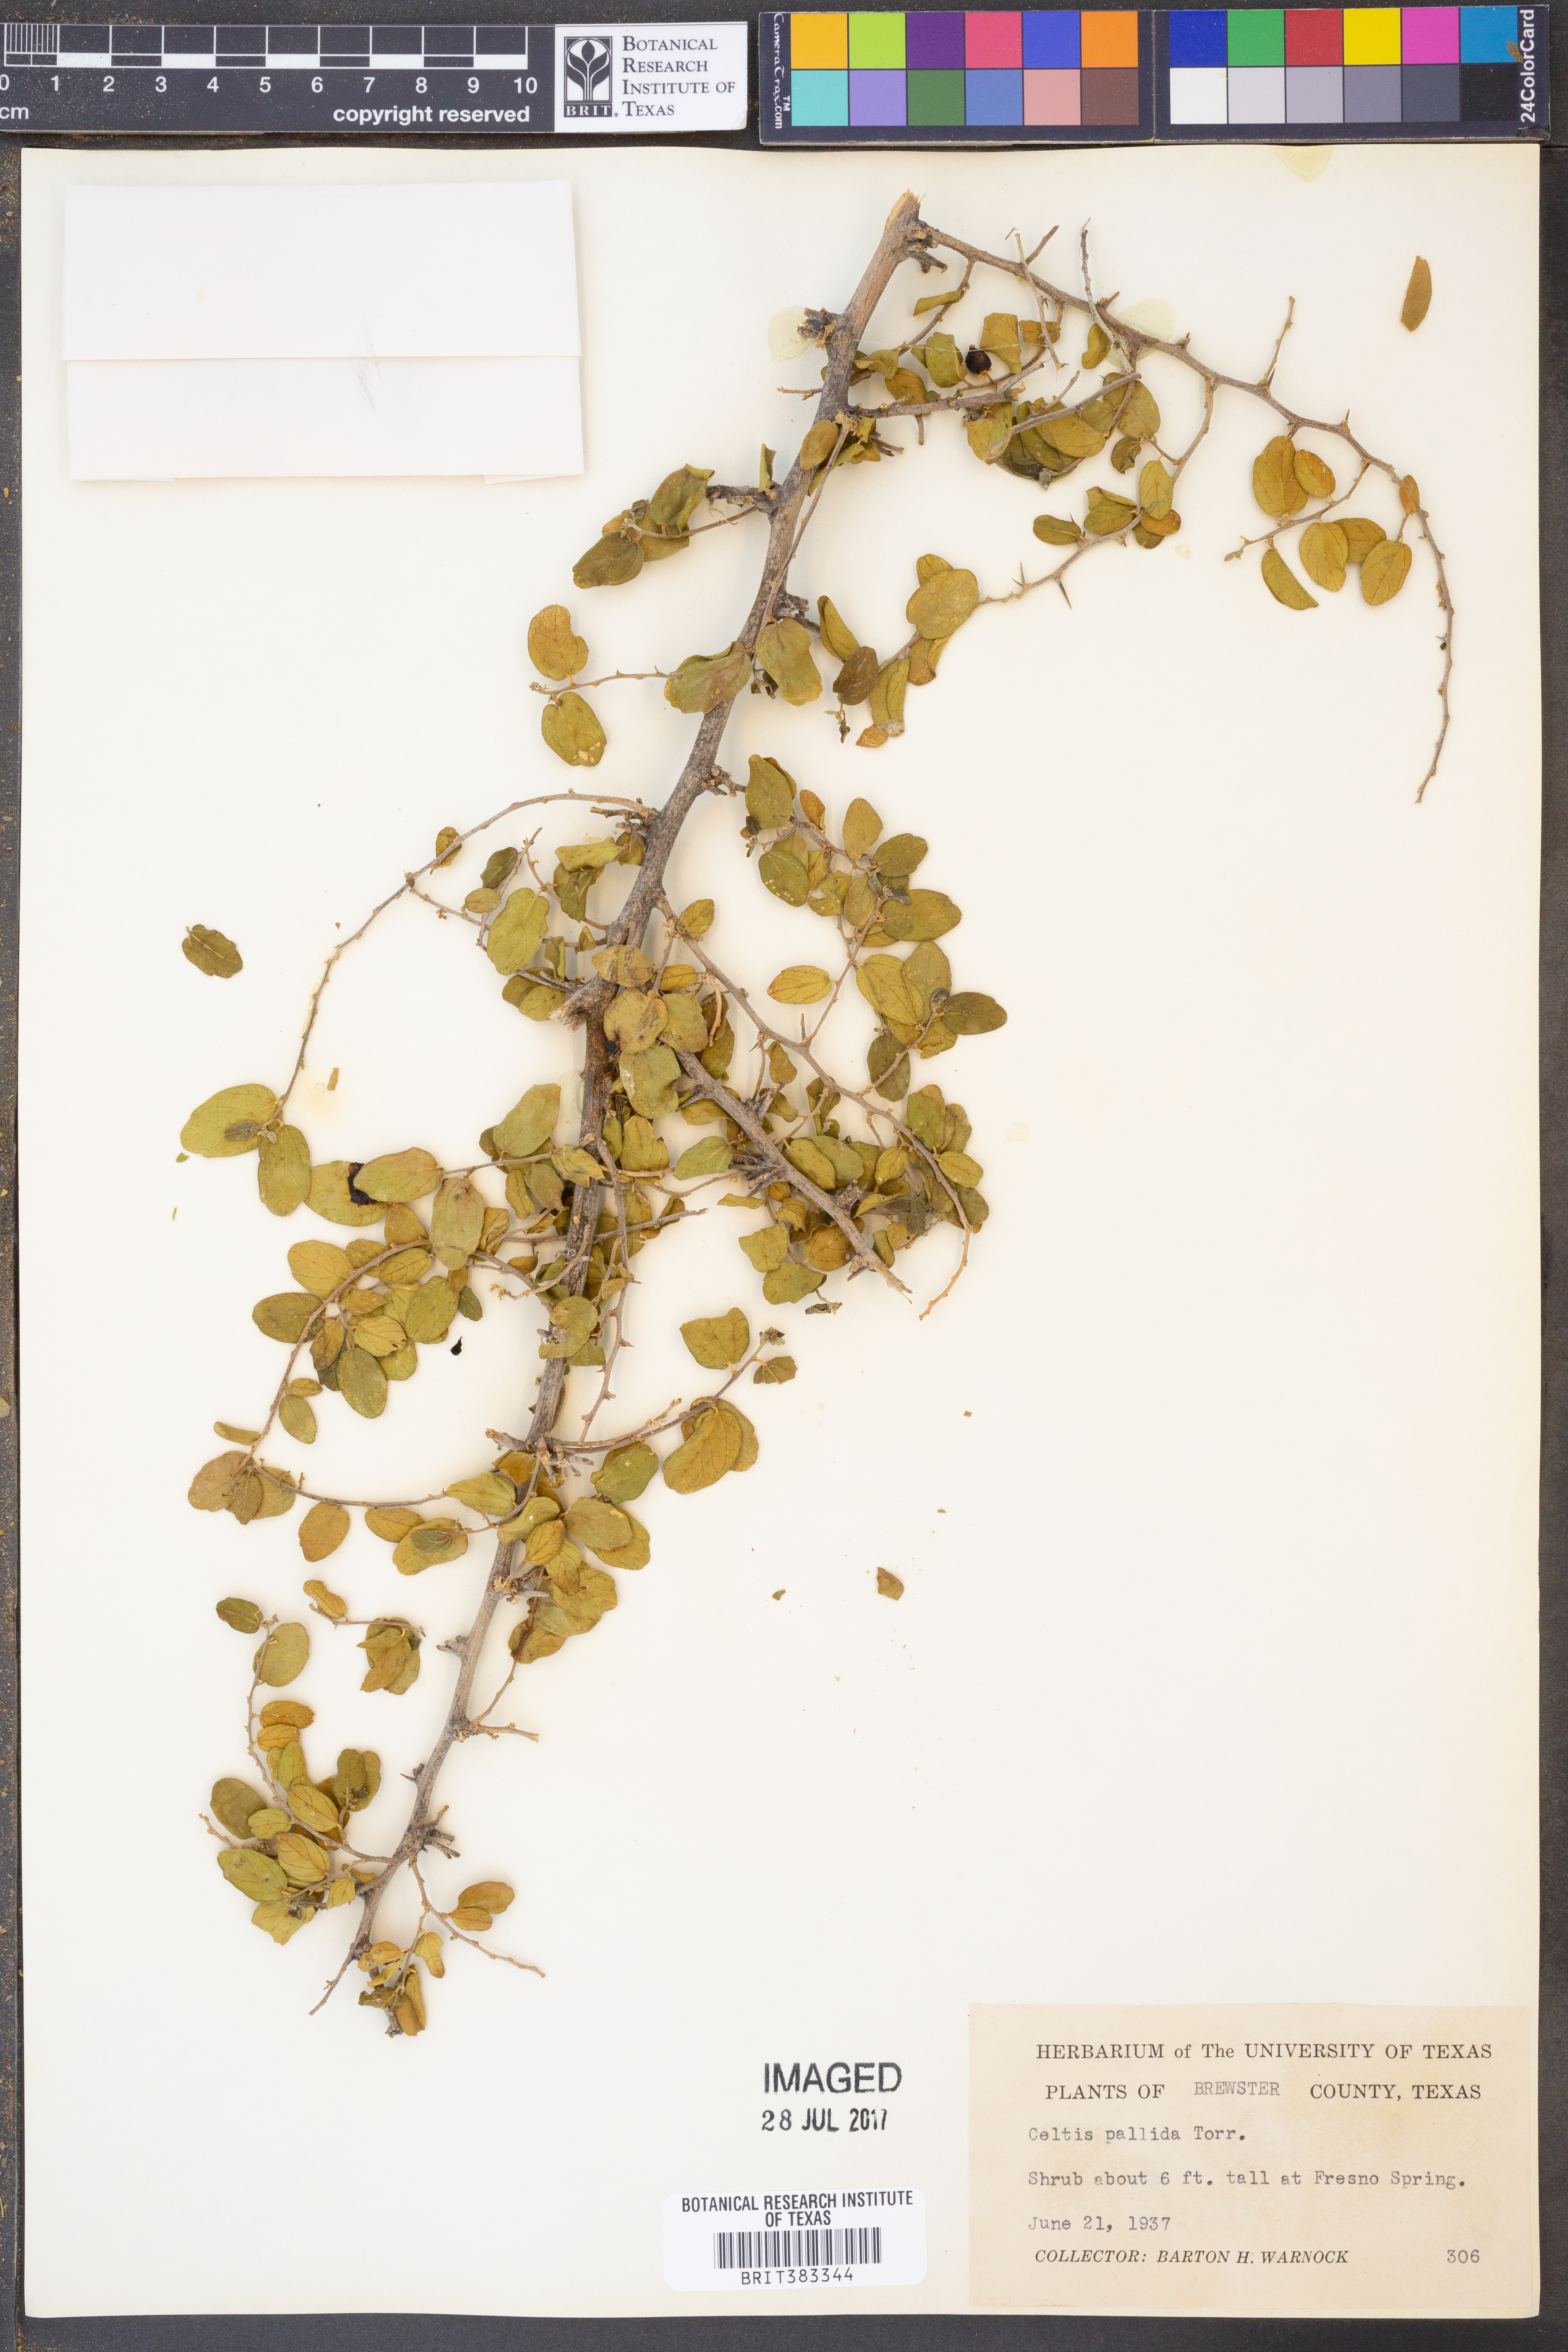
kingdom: Plantae
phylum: Tracheophyta
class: Magnoliopsida
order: Rosales
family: Cannabaceae
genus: Celtis
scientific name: Celtis pallida
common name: Desert hackberry
